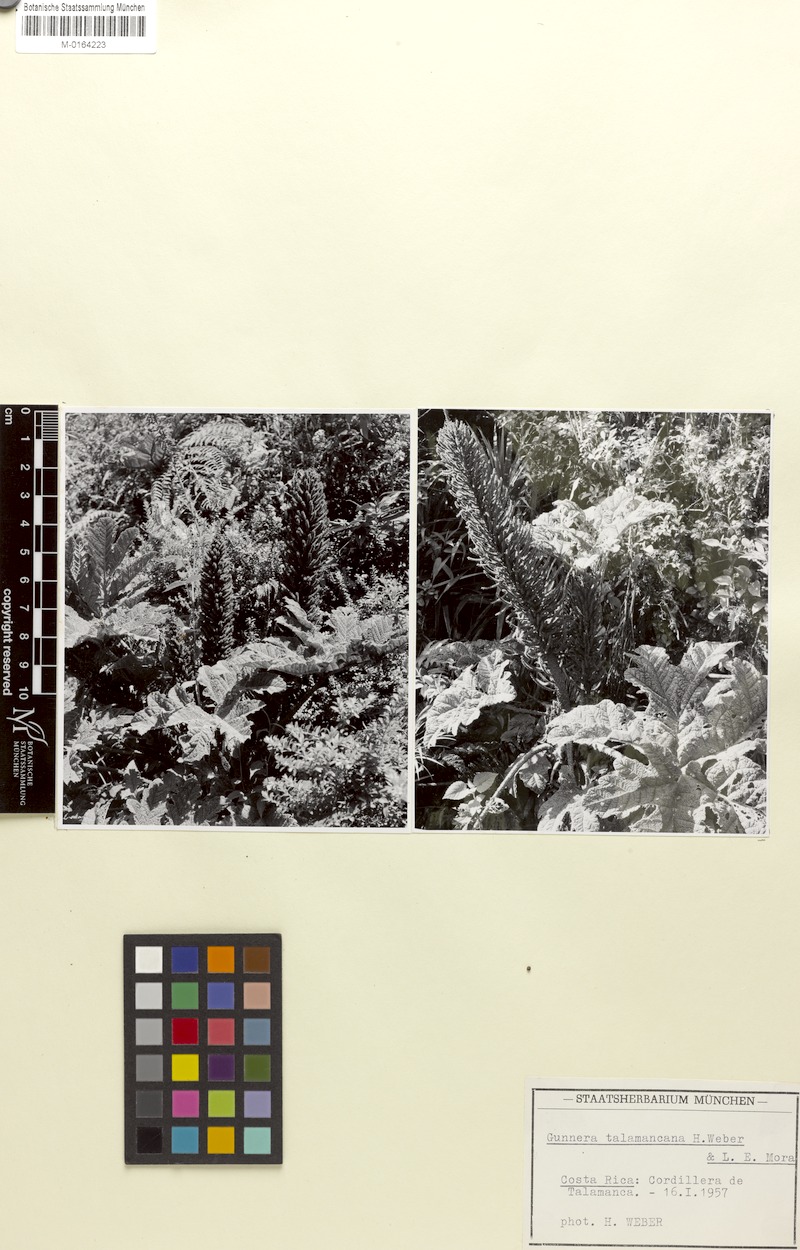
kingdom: Plantae
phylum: Tracheophyta
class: Magnoliopsida
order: Gunnerales
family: Gunneraceae
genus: Gunnera
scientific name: Gunnera talamancana
